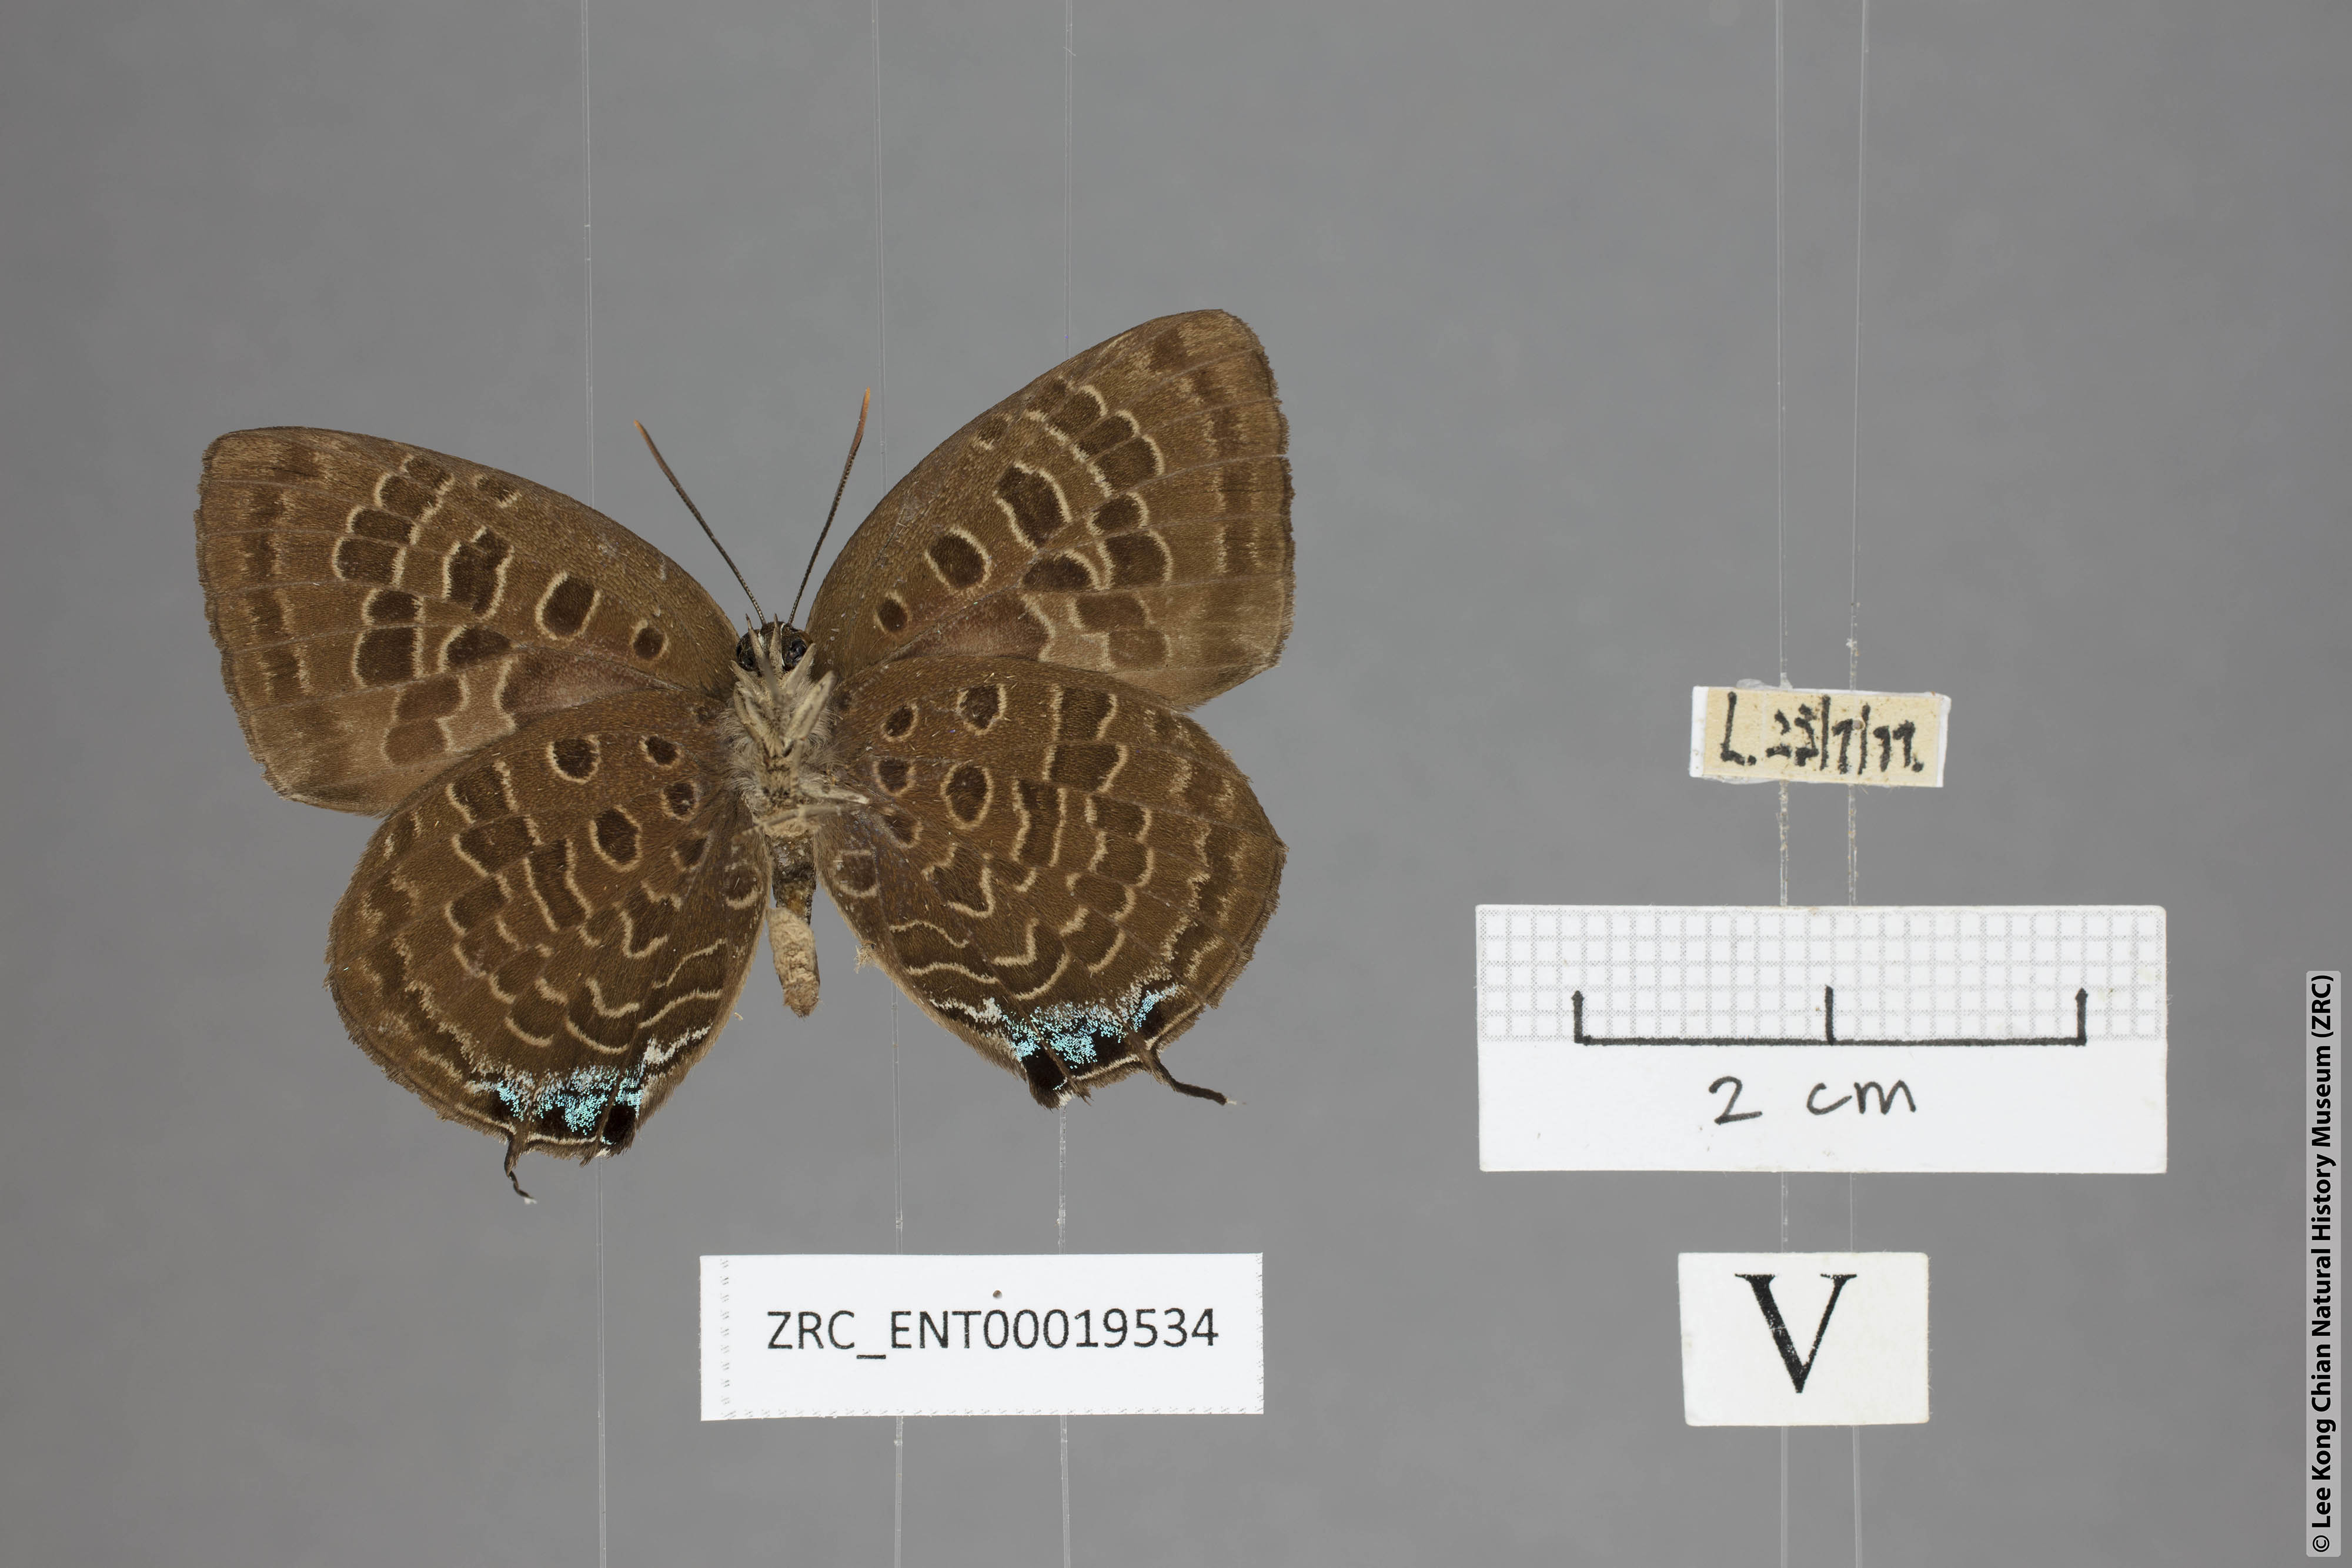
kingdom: Animalia
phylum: Arthropoda
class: Insecta
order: Lepidoptera
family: Lycaenidae
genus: Arhopala
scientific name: Arhopala horsfieldi
